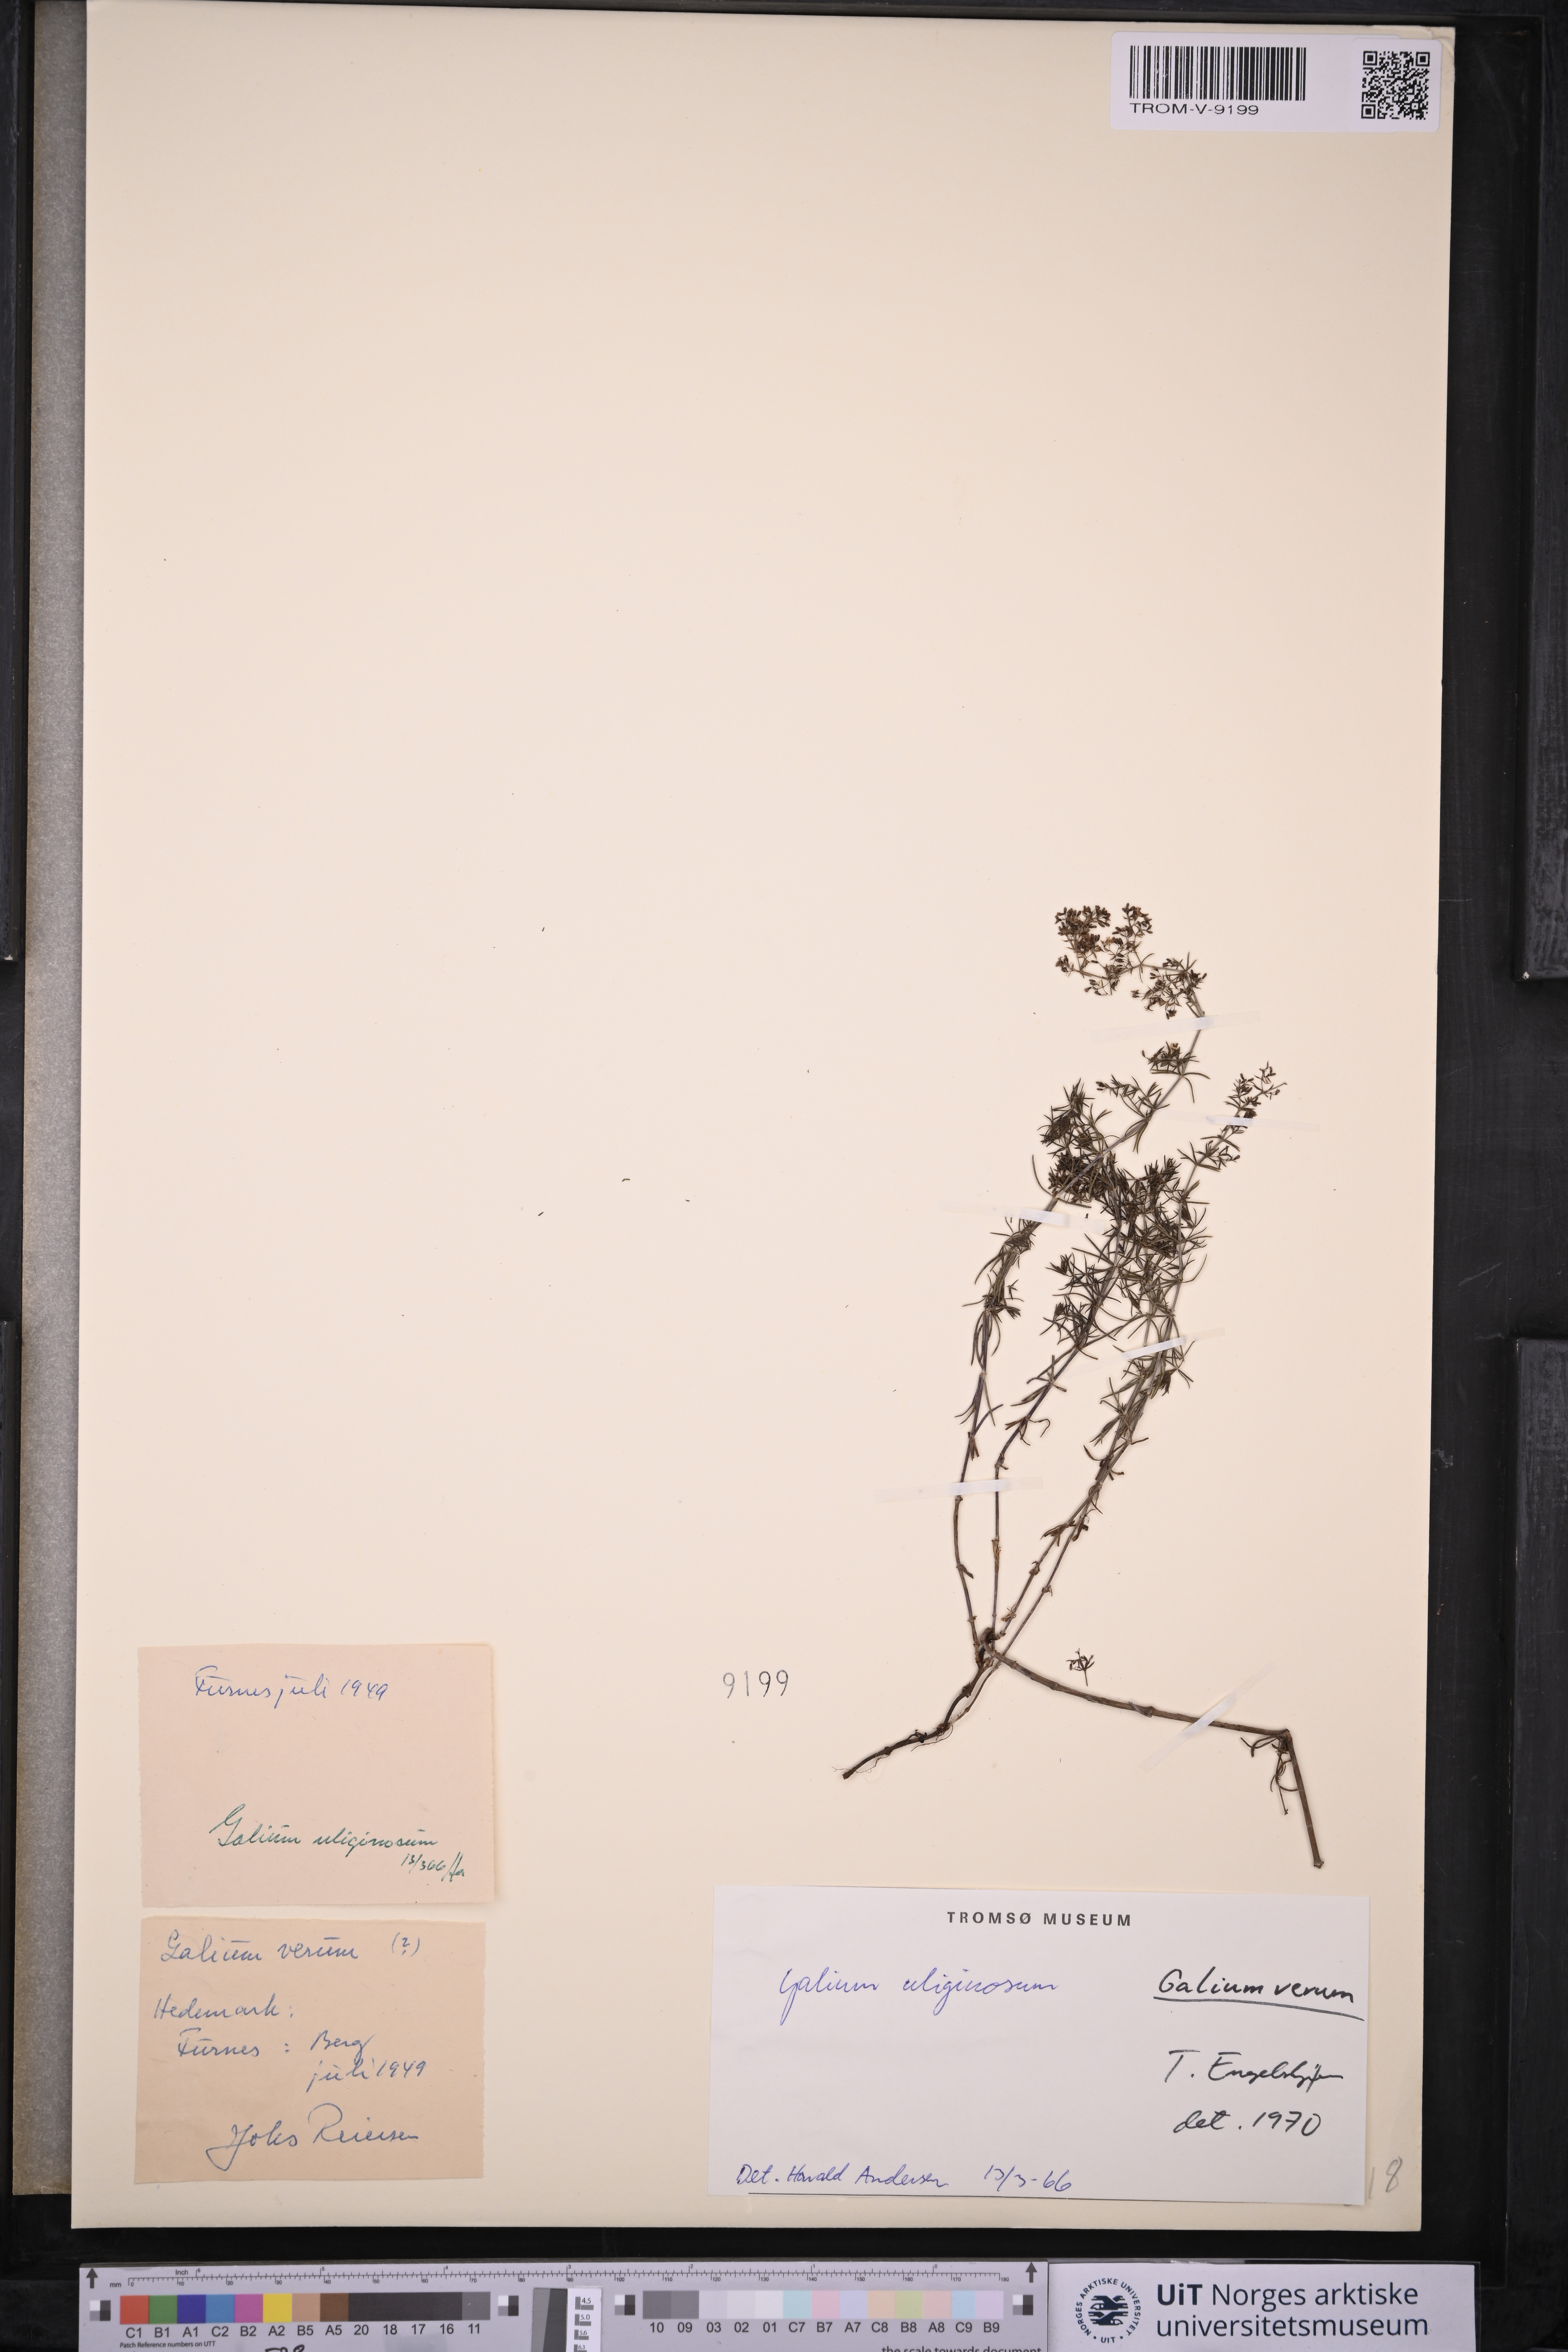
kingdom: Plantae
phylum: Tracheophyta
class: Magnoliopsida
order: Gentianales
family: Rubiaceae
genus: Galium
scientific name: Galium uliginosum
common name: Fen bedstraw
